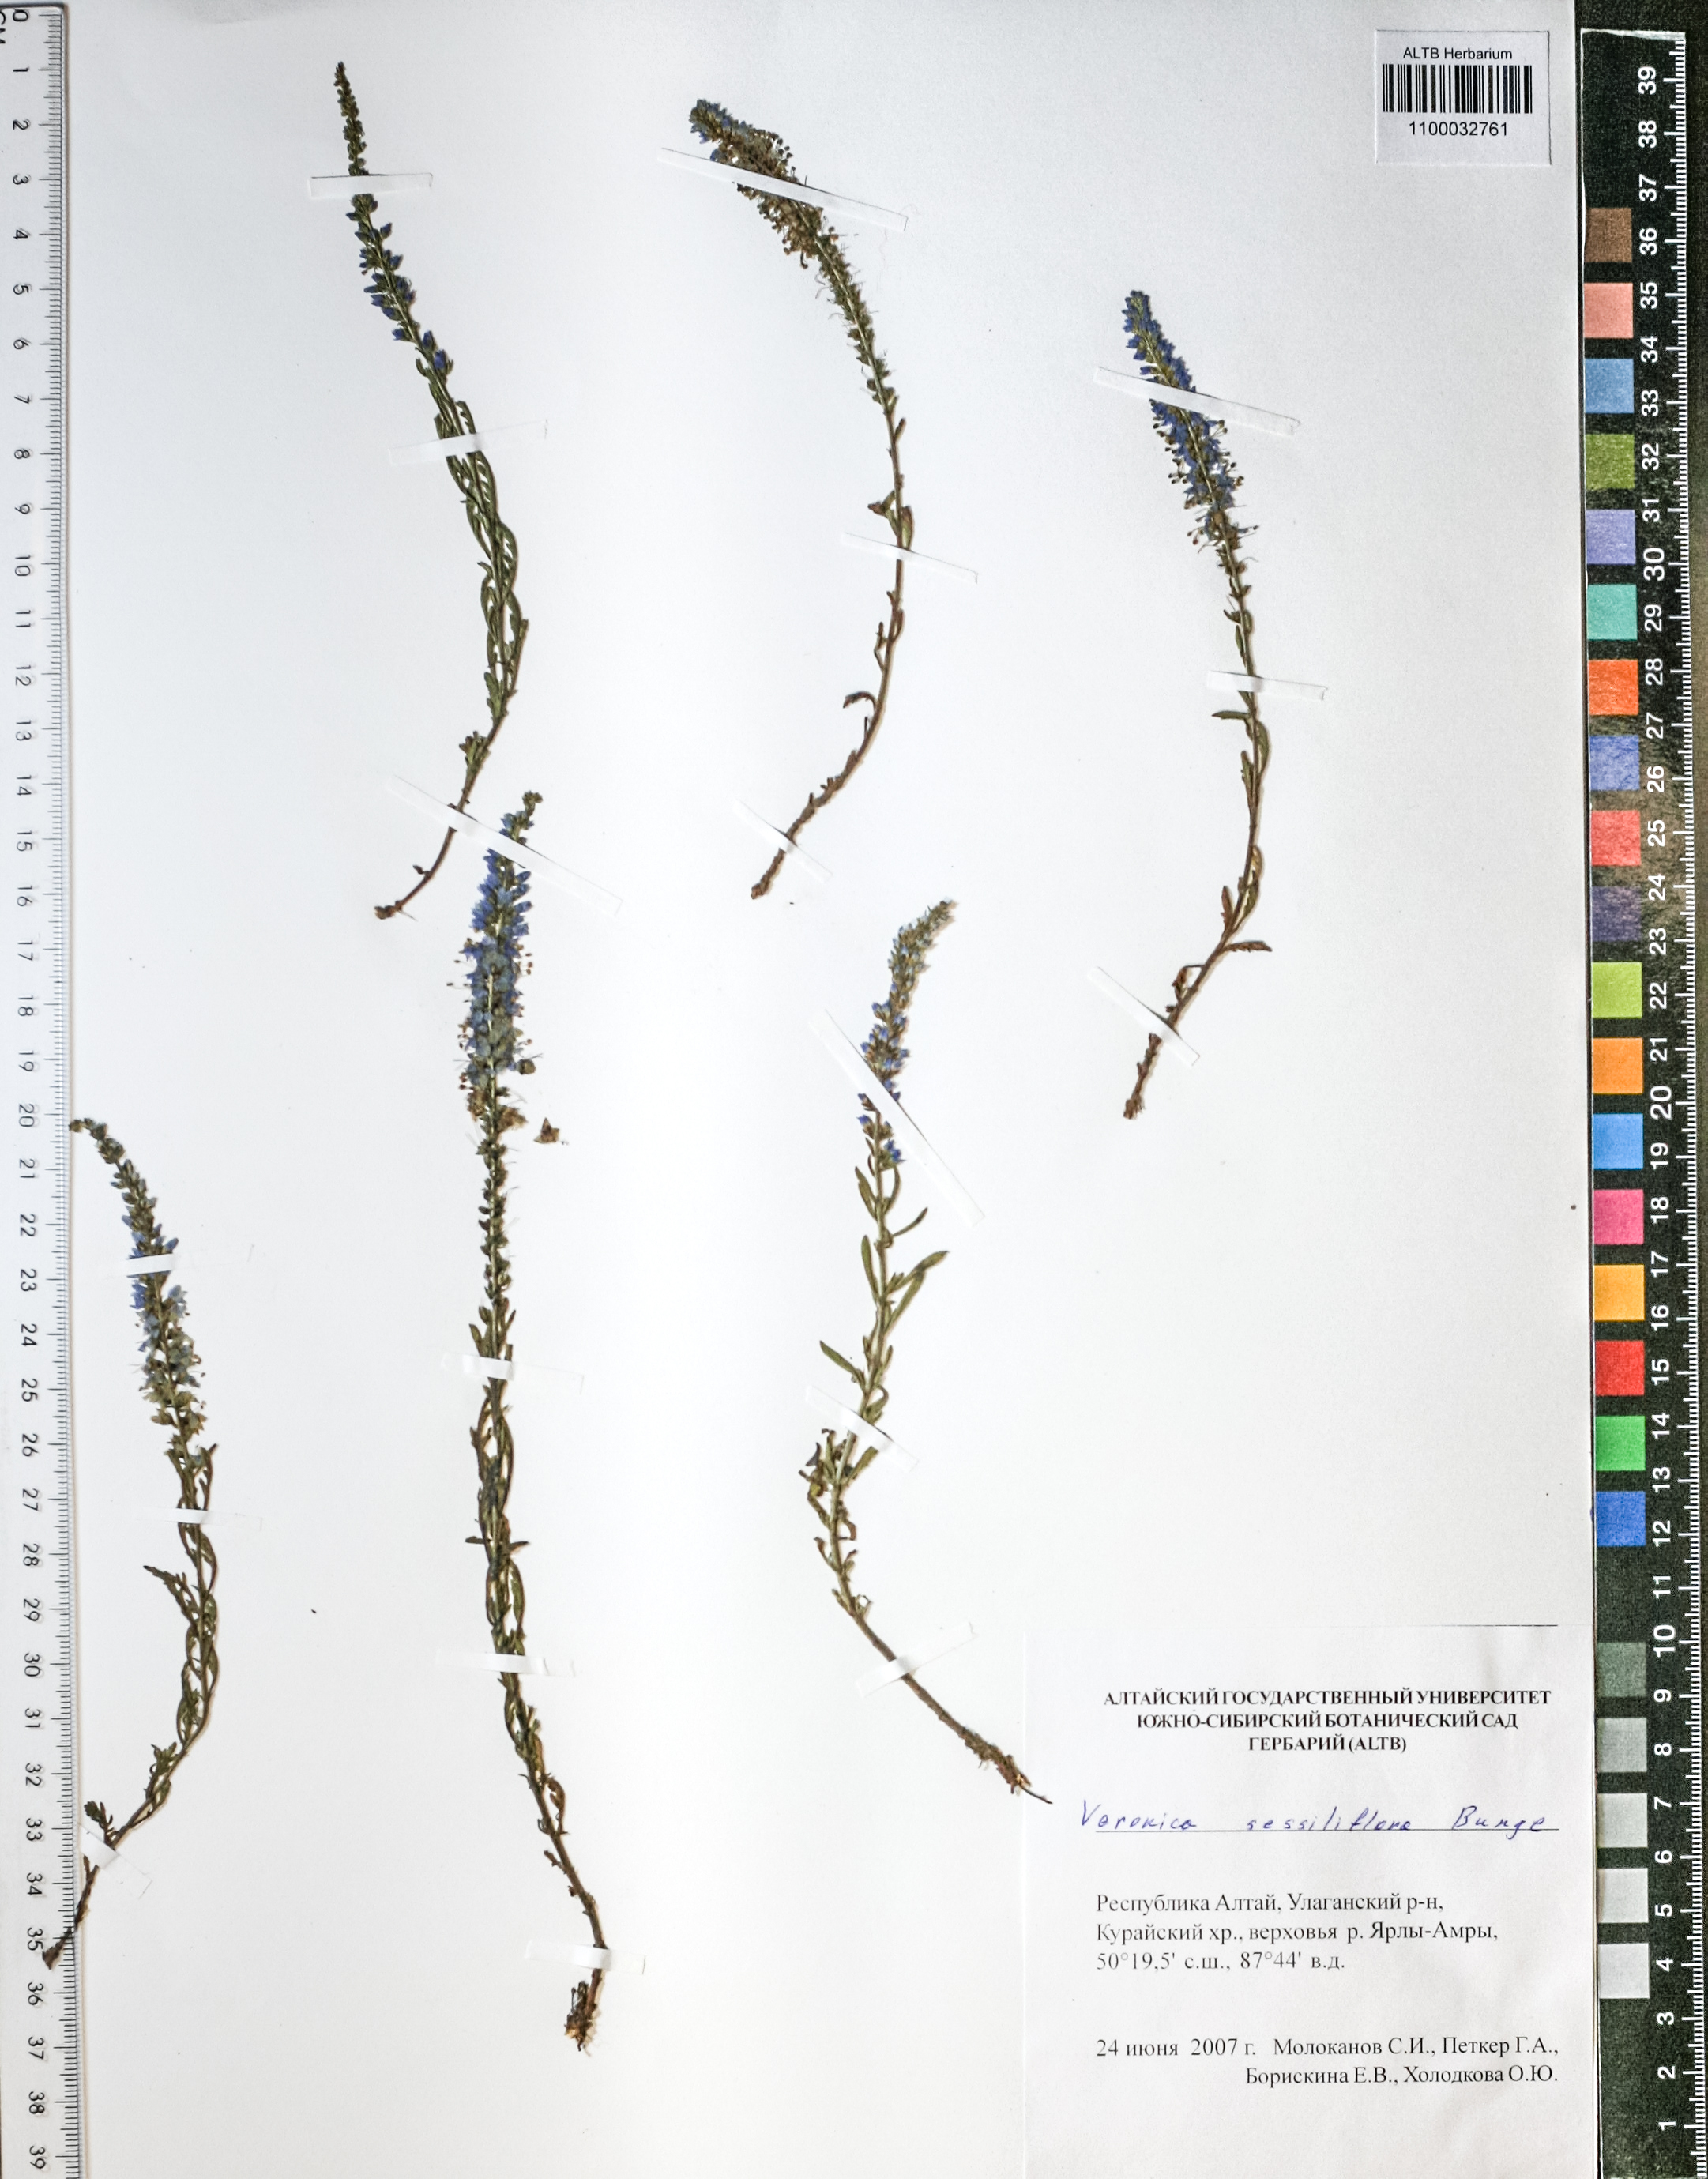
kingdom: Plantae
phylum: Tracheophyta
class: Magnoliopsida
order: Lamiales
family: Plantaginaceae
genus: Veronica
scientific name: Veronica sessiliflora
